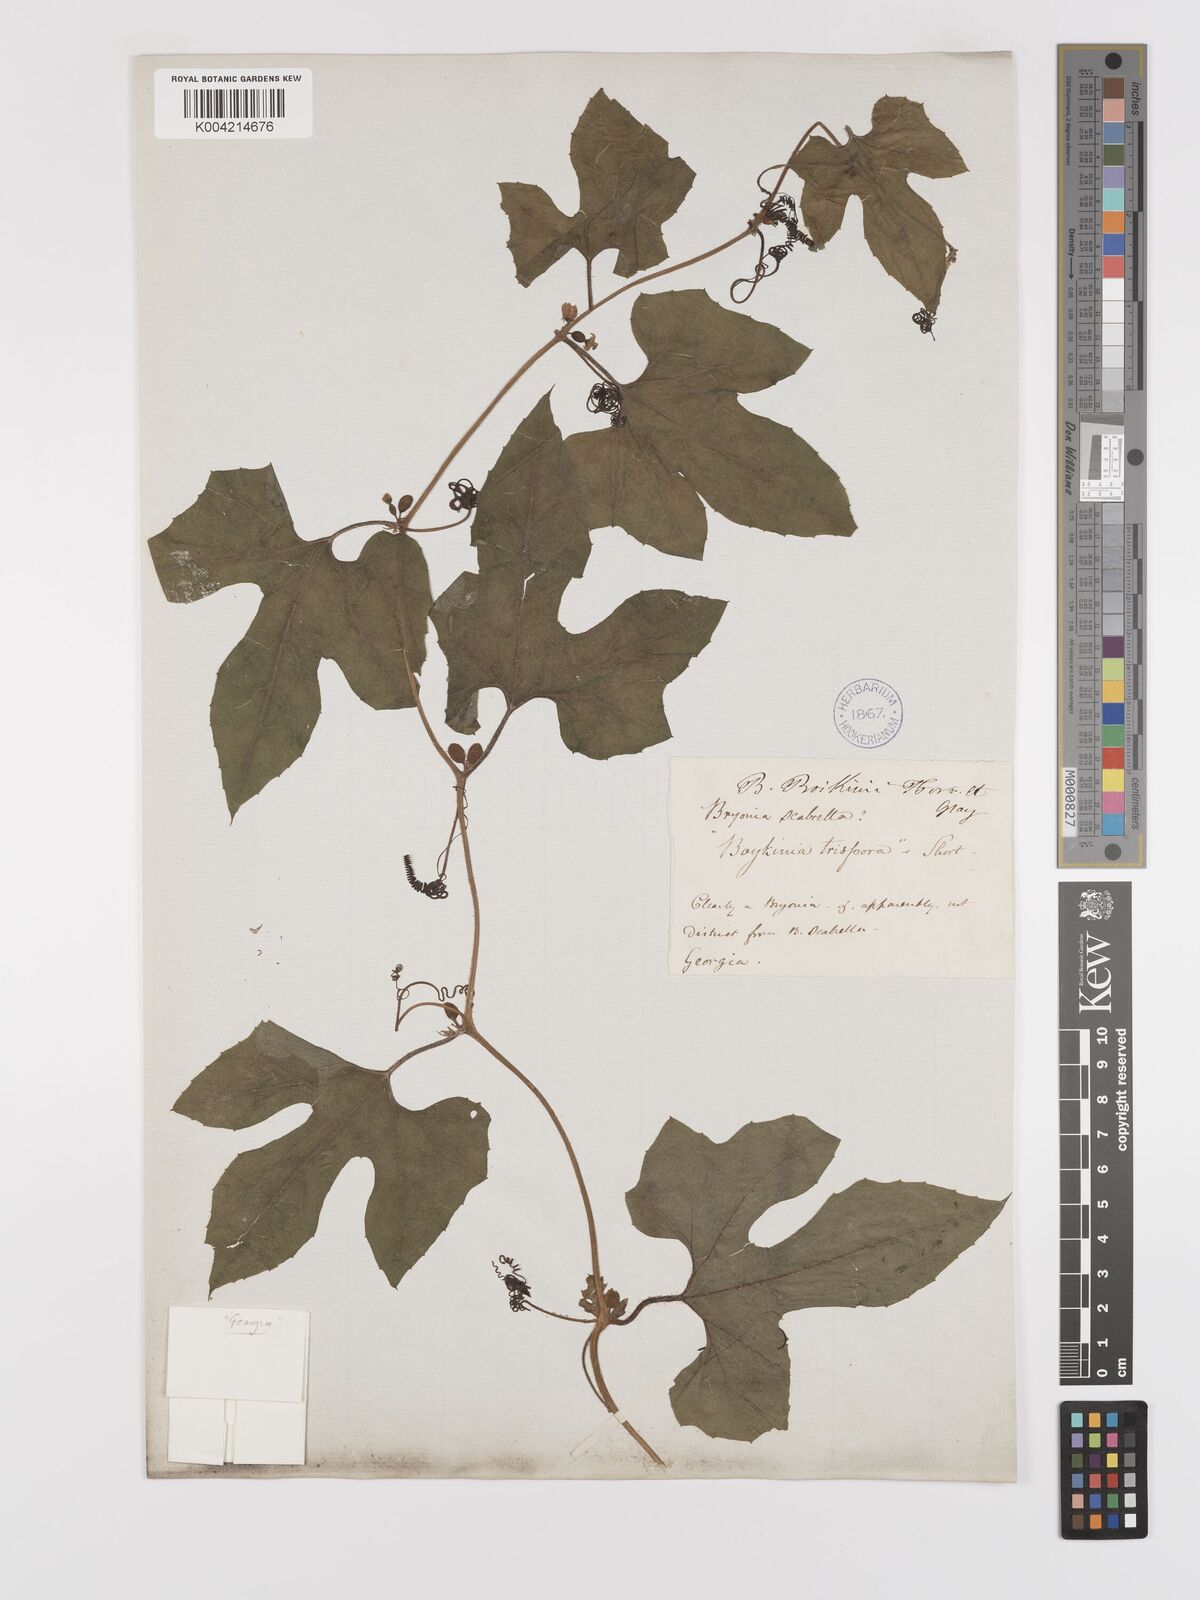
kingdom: Plantae
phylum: Tracheophyta
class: Magnoliopsida
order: Cucurbitales
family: Cucurbitaceae
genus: Cayaponia
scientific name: Cayaponia quinqueloba
